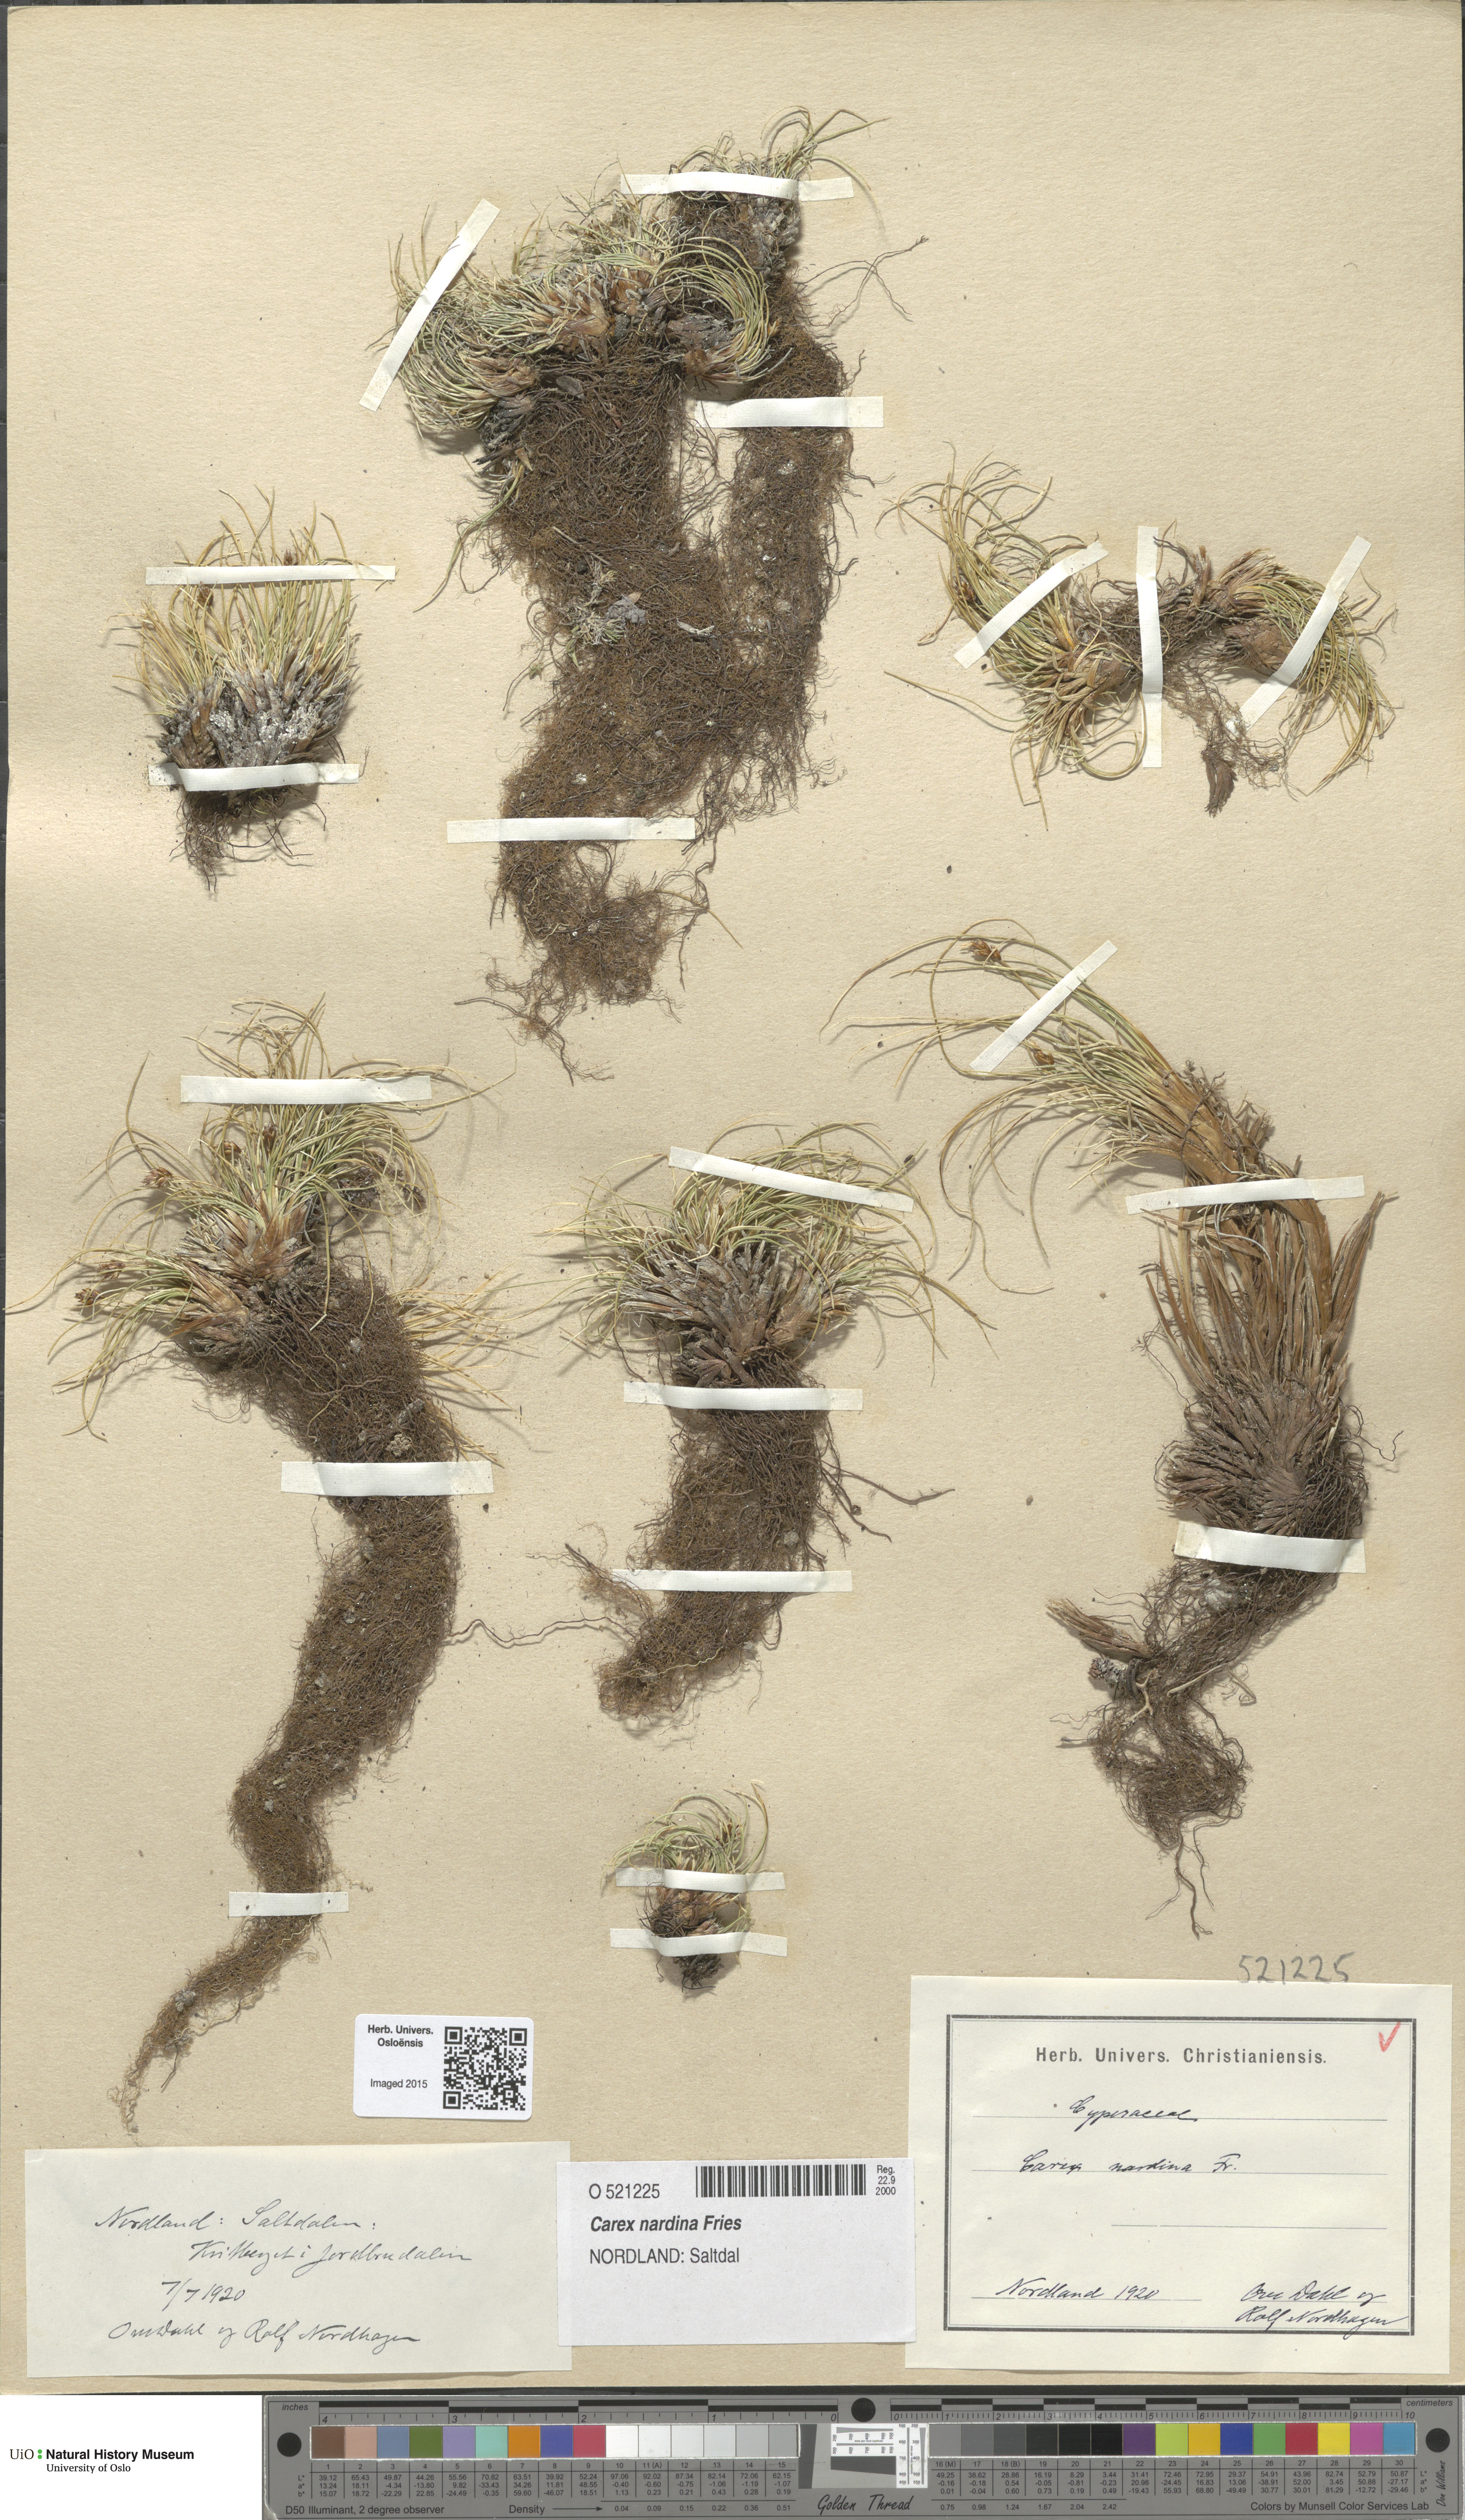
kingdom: Plantae
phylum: Tracheophyta
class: Liliopsida
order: Poales
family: Cyperaceae
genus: Carex
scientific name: Carex nardina
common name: Nard sedge
